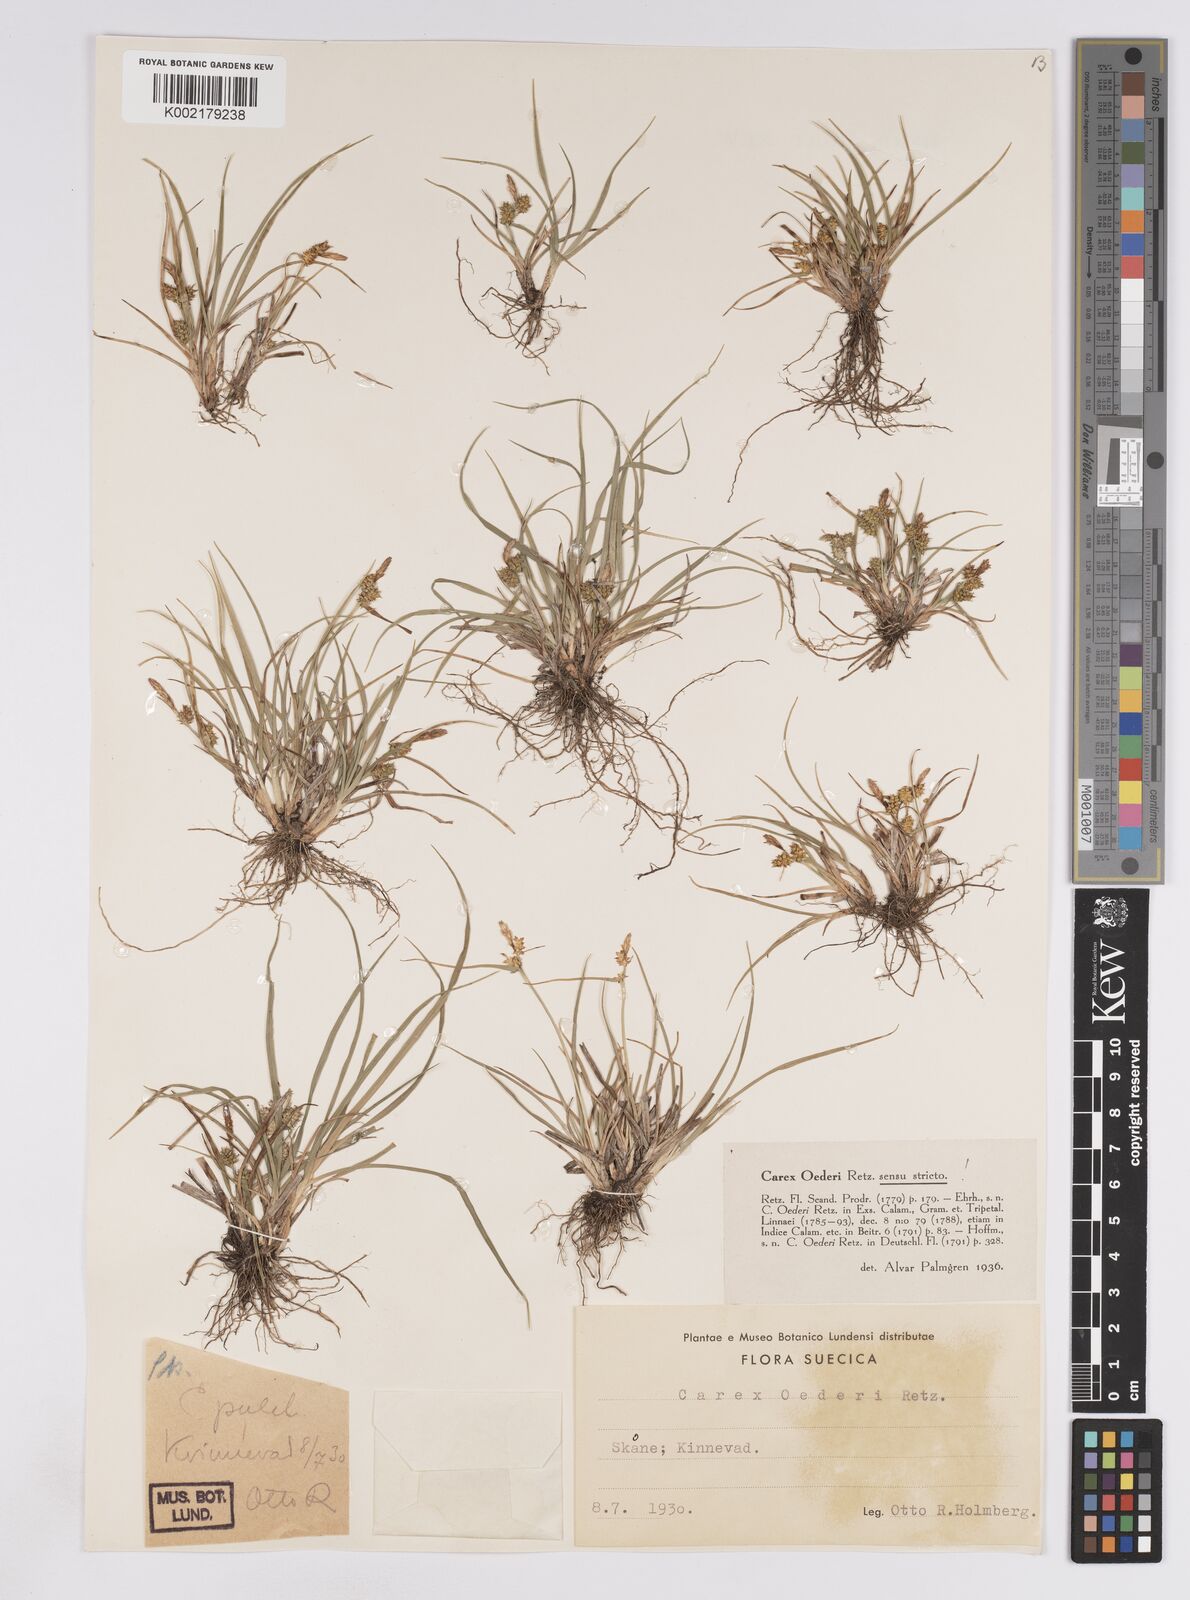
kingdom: Plantae
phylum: Tracheophyta
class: Liliopsida
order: Poales
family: Cyperaceae
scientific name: Cyperaceae
